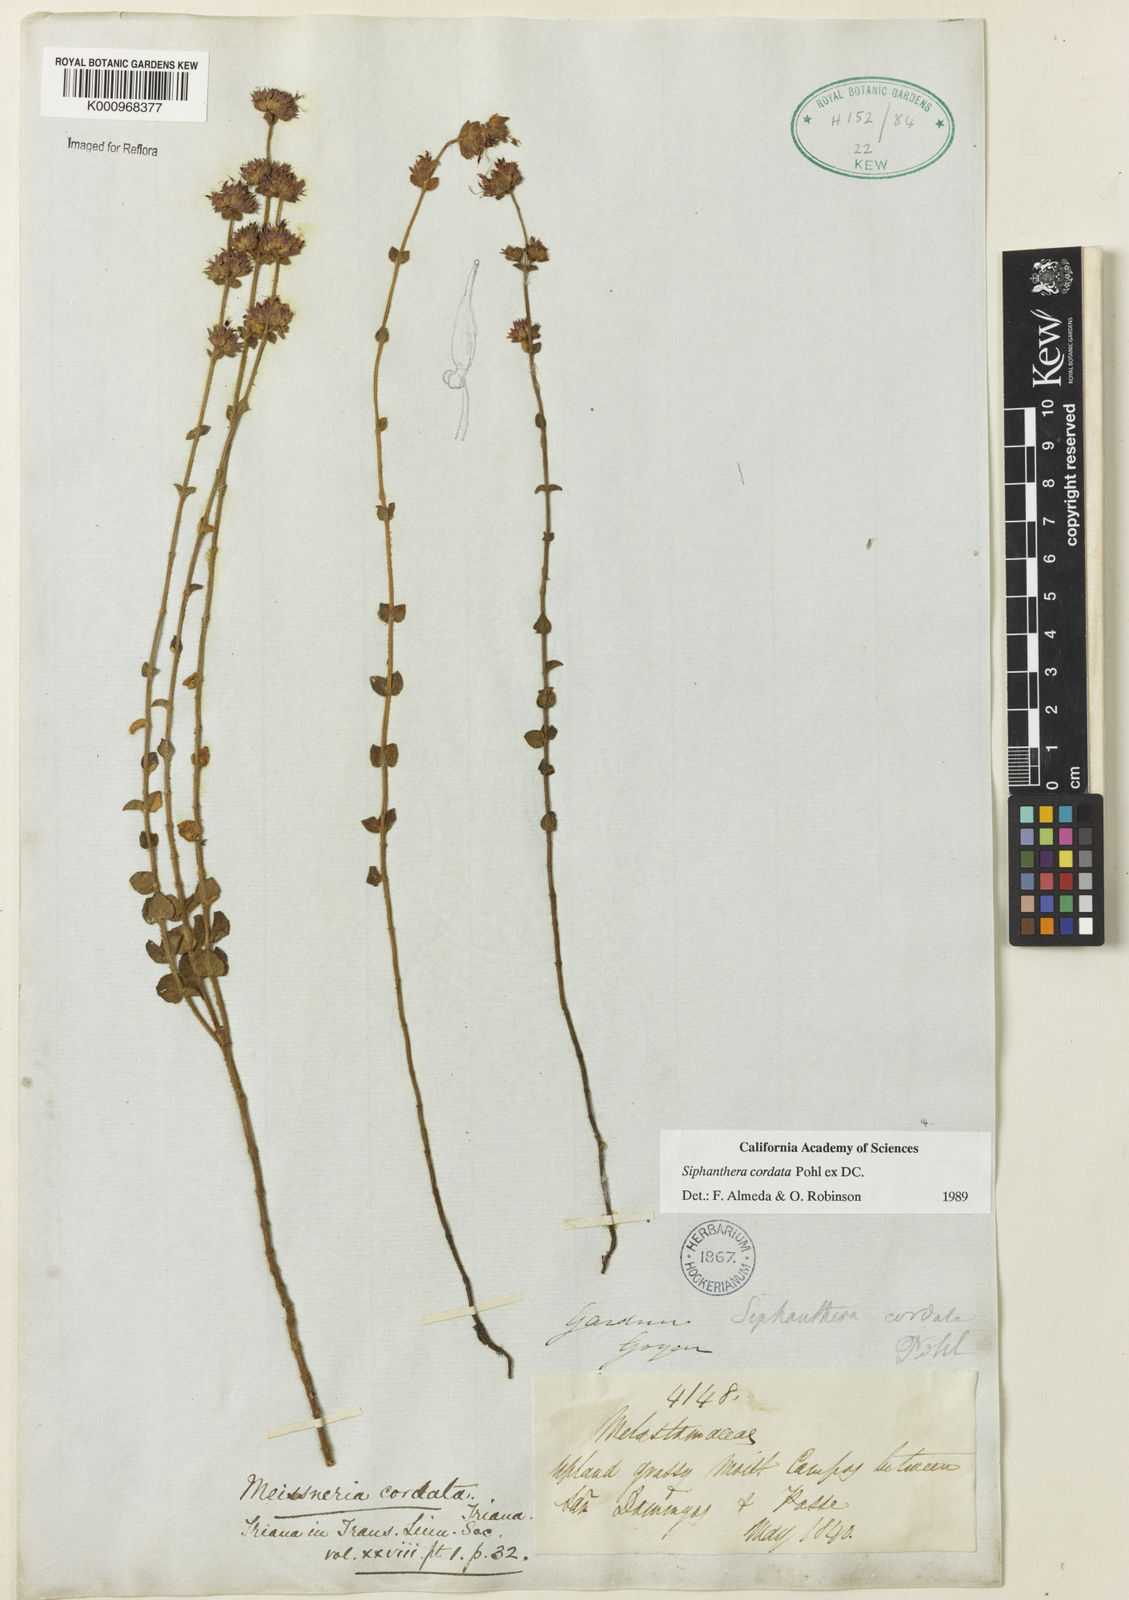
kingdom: Plantae
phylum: Tracheophyta
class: Magnoliopsida
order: Myrtales
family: Melastomataceae
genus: Siphanthera
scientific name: Siphanthera
